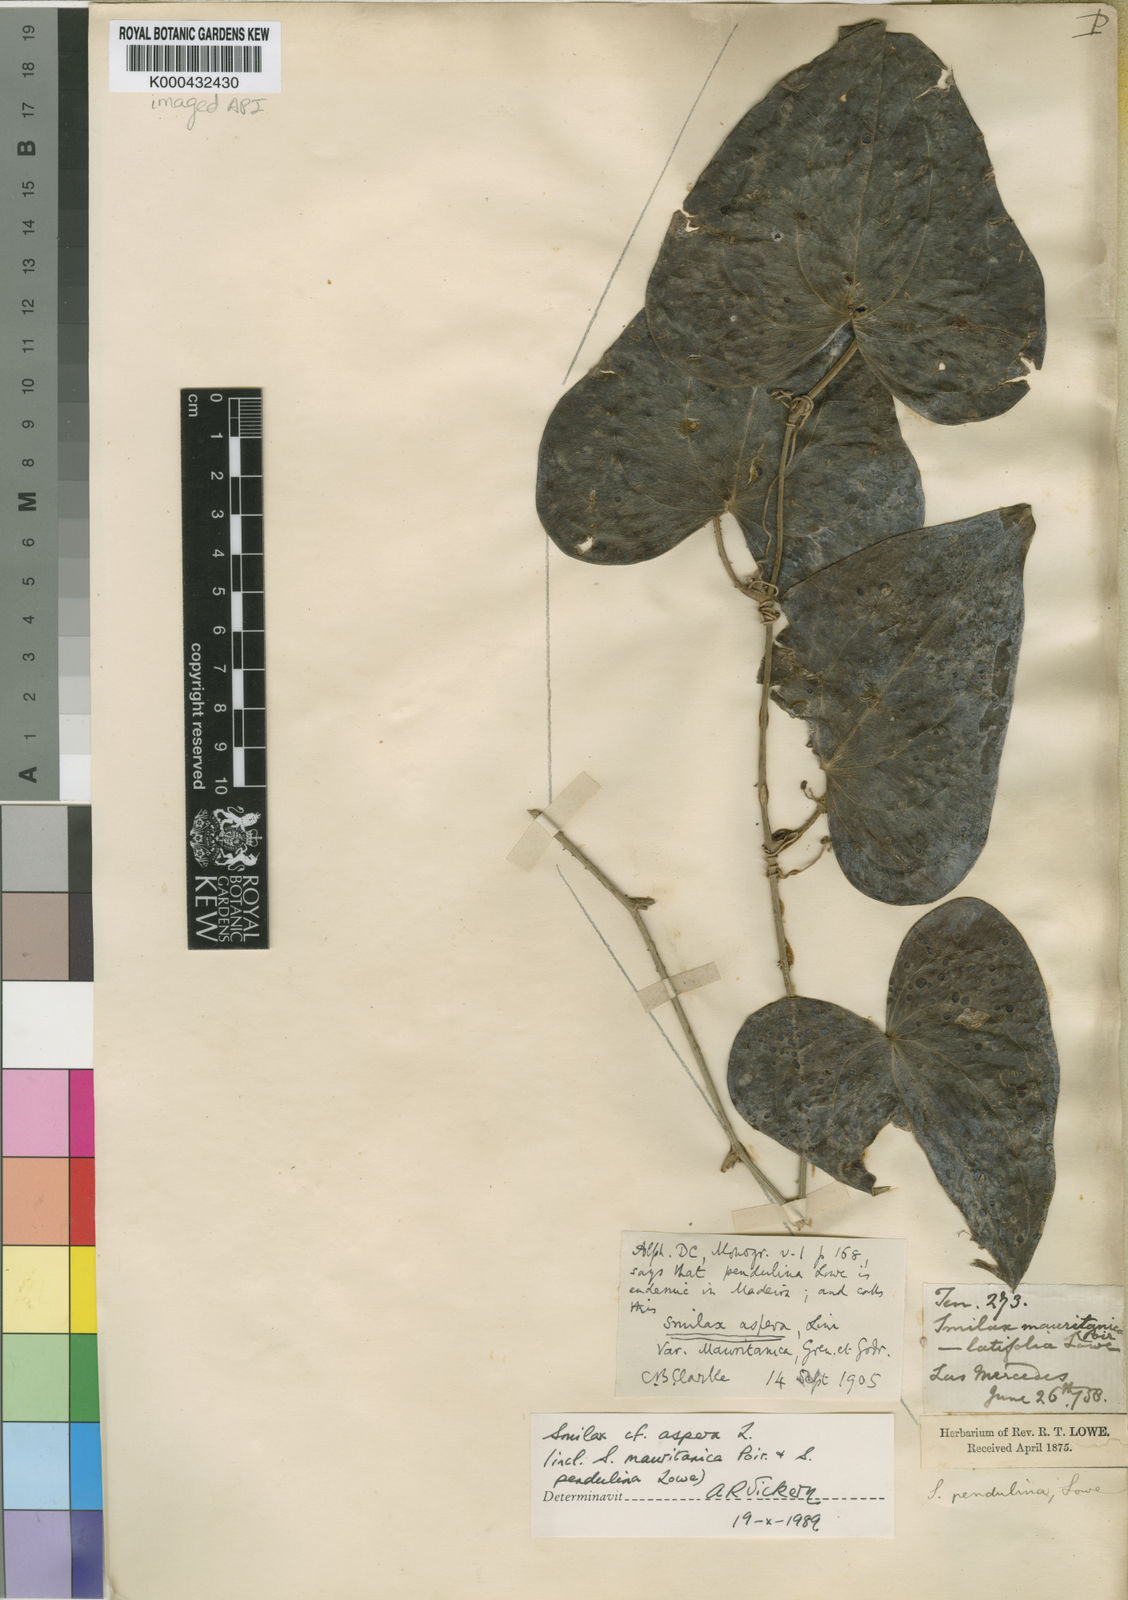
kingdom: Plantae
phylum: Tracheophyta
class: Liliopsida
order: Liliales
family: Smilacaceae
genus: Smilax
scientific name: Smilax aspera
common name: Common smilax
